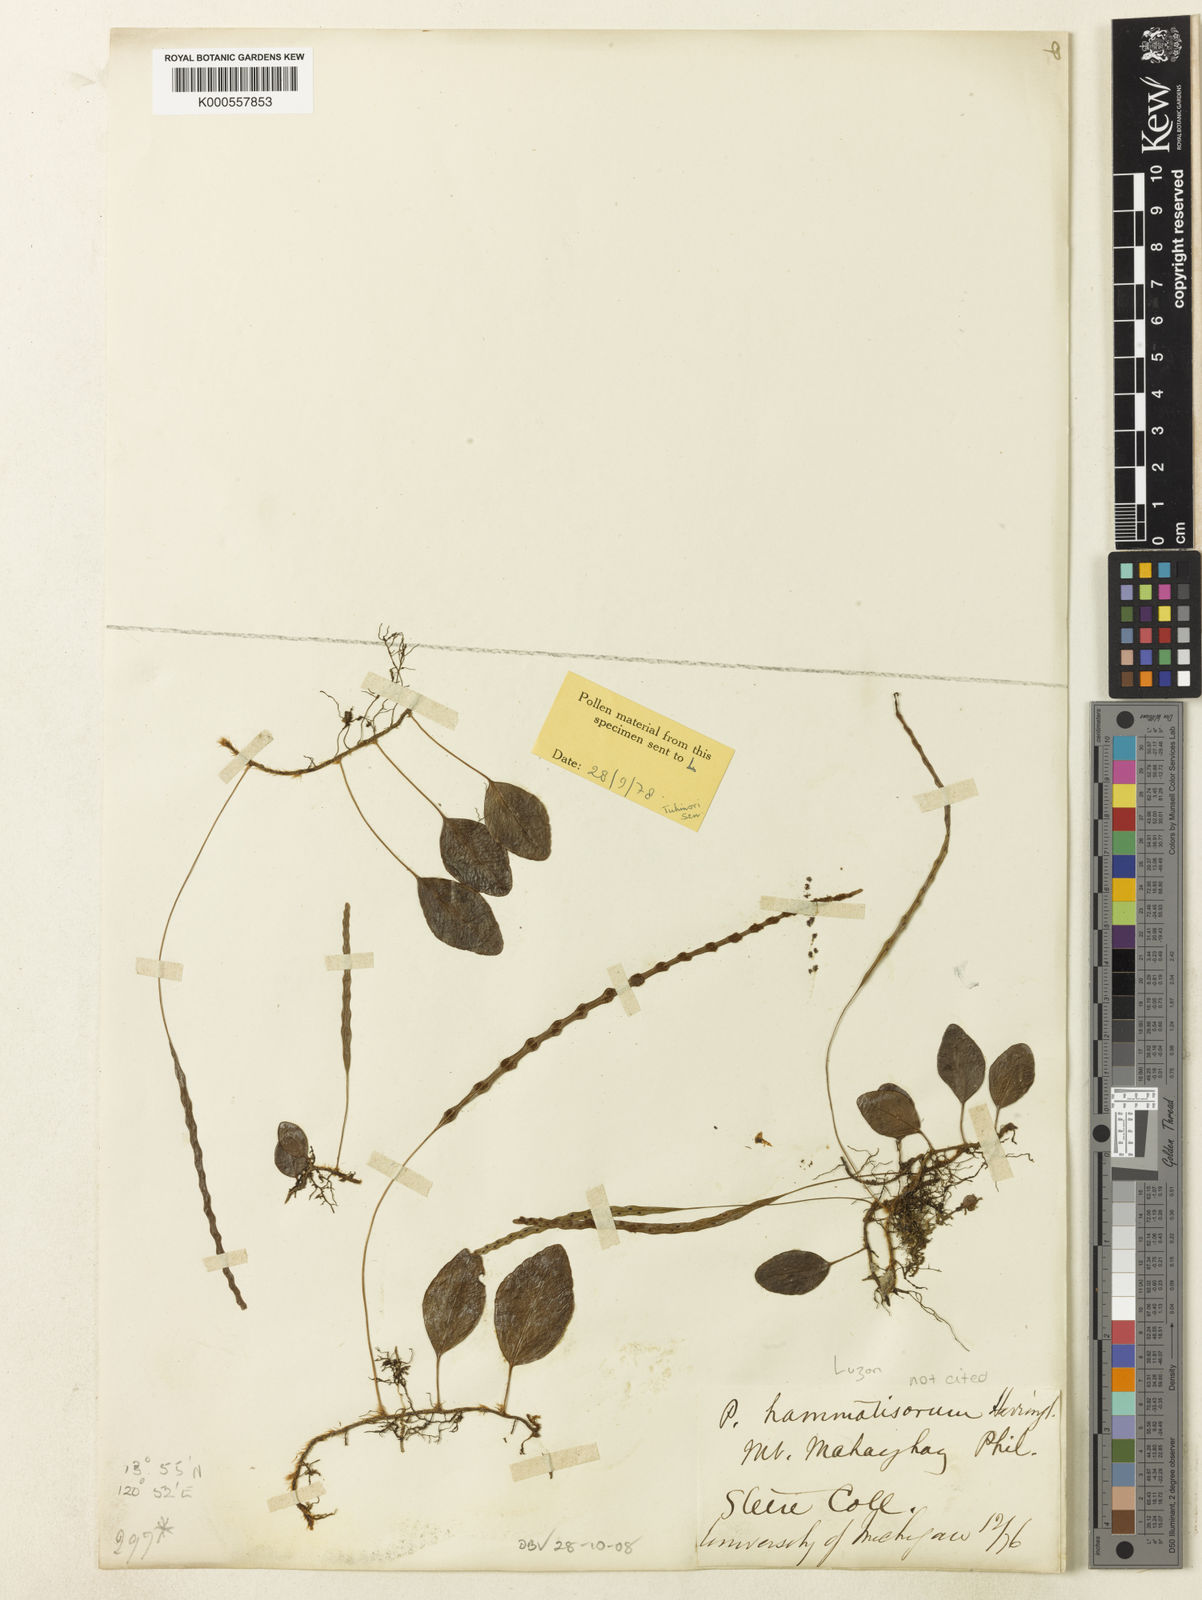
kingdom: Plantae
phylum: Tracheophyta
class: Polypodiopsida
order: Polypodiales
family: Polypodiaceae
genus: Selliguea
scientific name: Selliguea pyrolifolia
